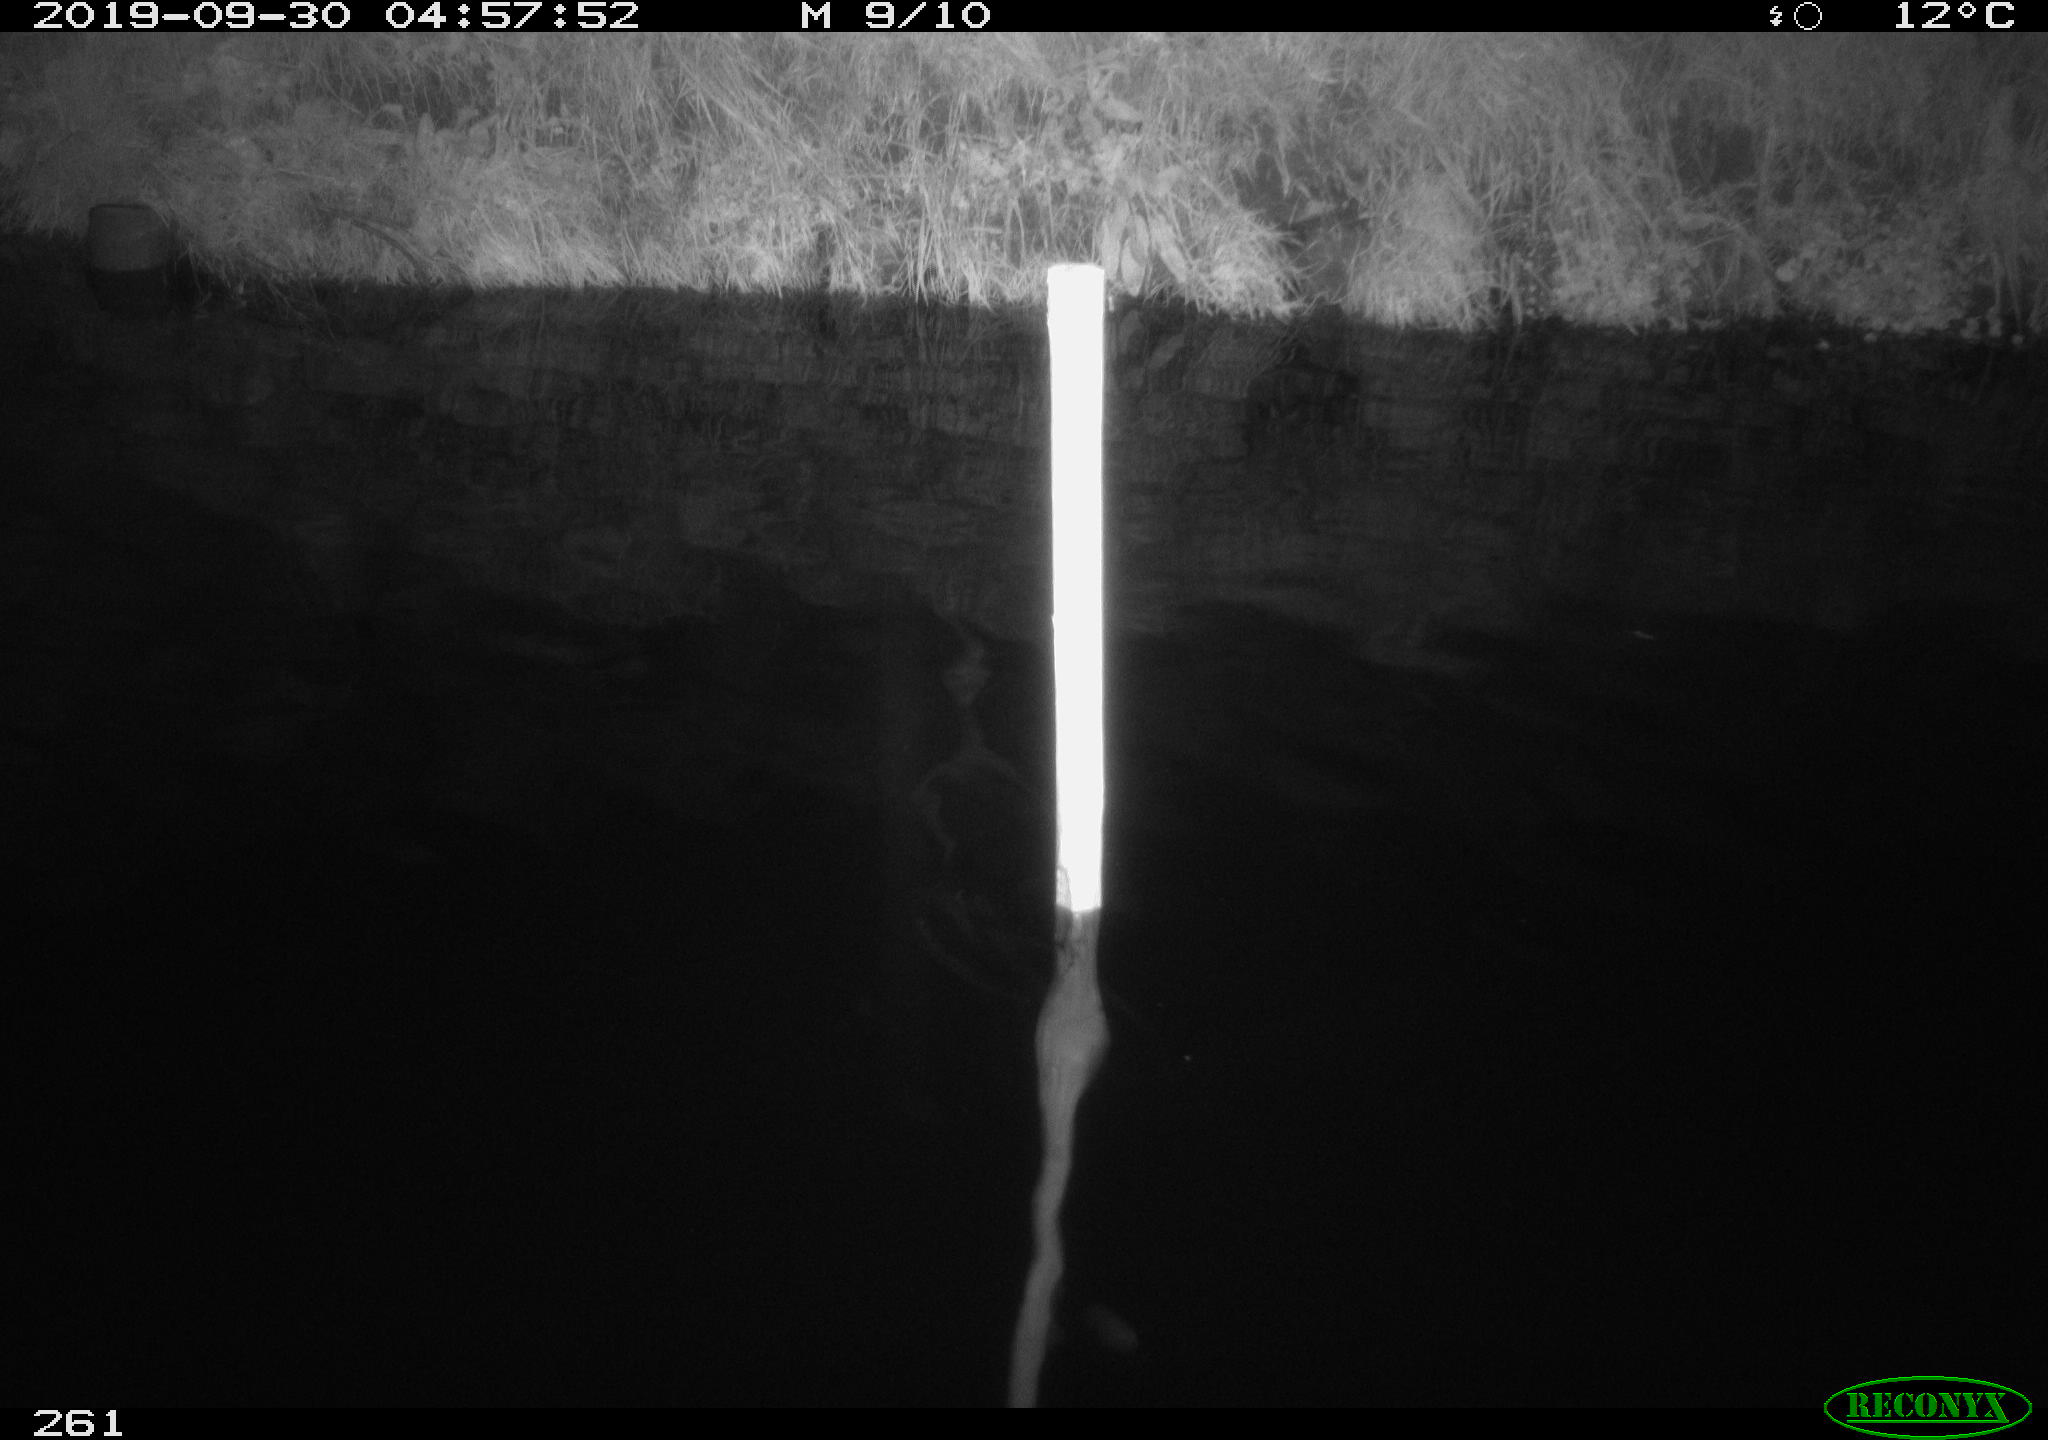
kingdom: Animalia
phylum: Chordata
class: Aves
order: Anseriformes
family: Anatidae
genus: Anas
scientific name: Anas platyrhynchos
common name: Mallard
